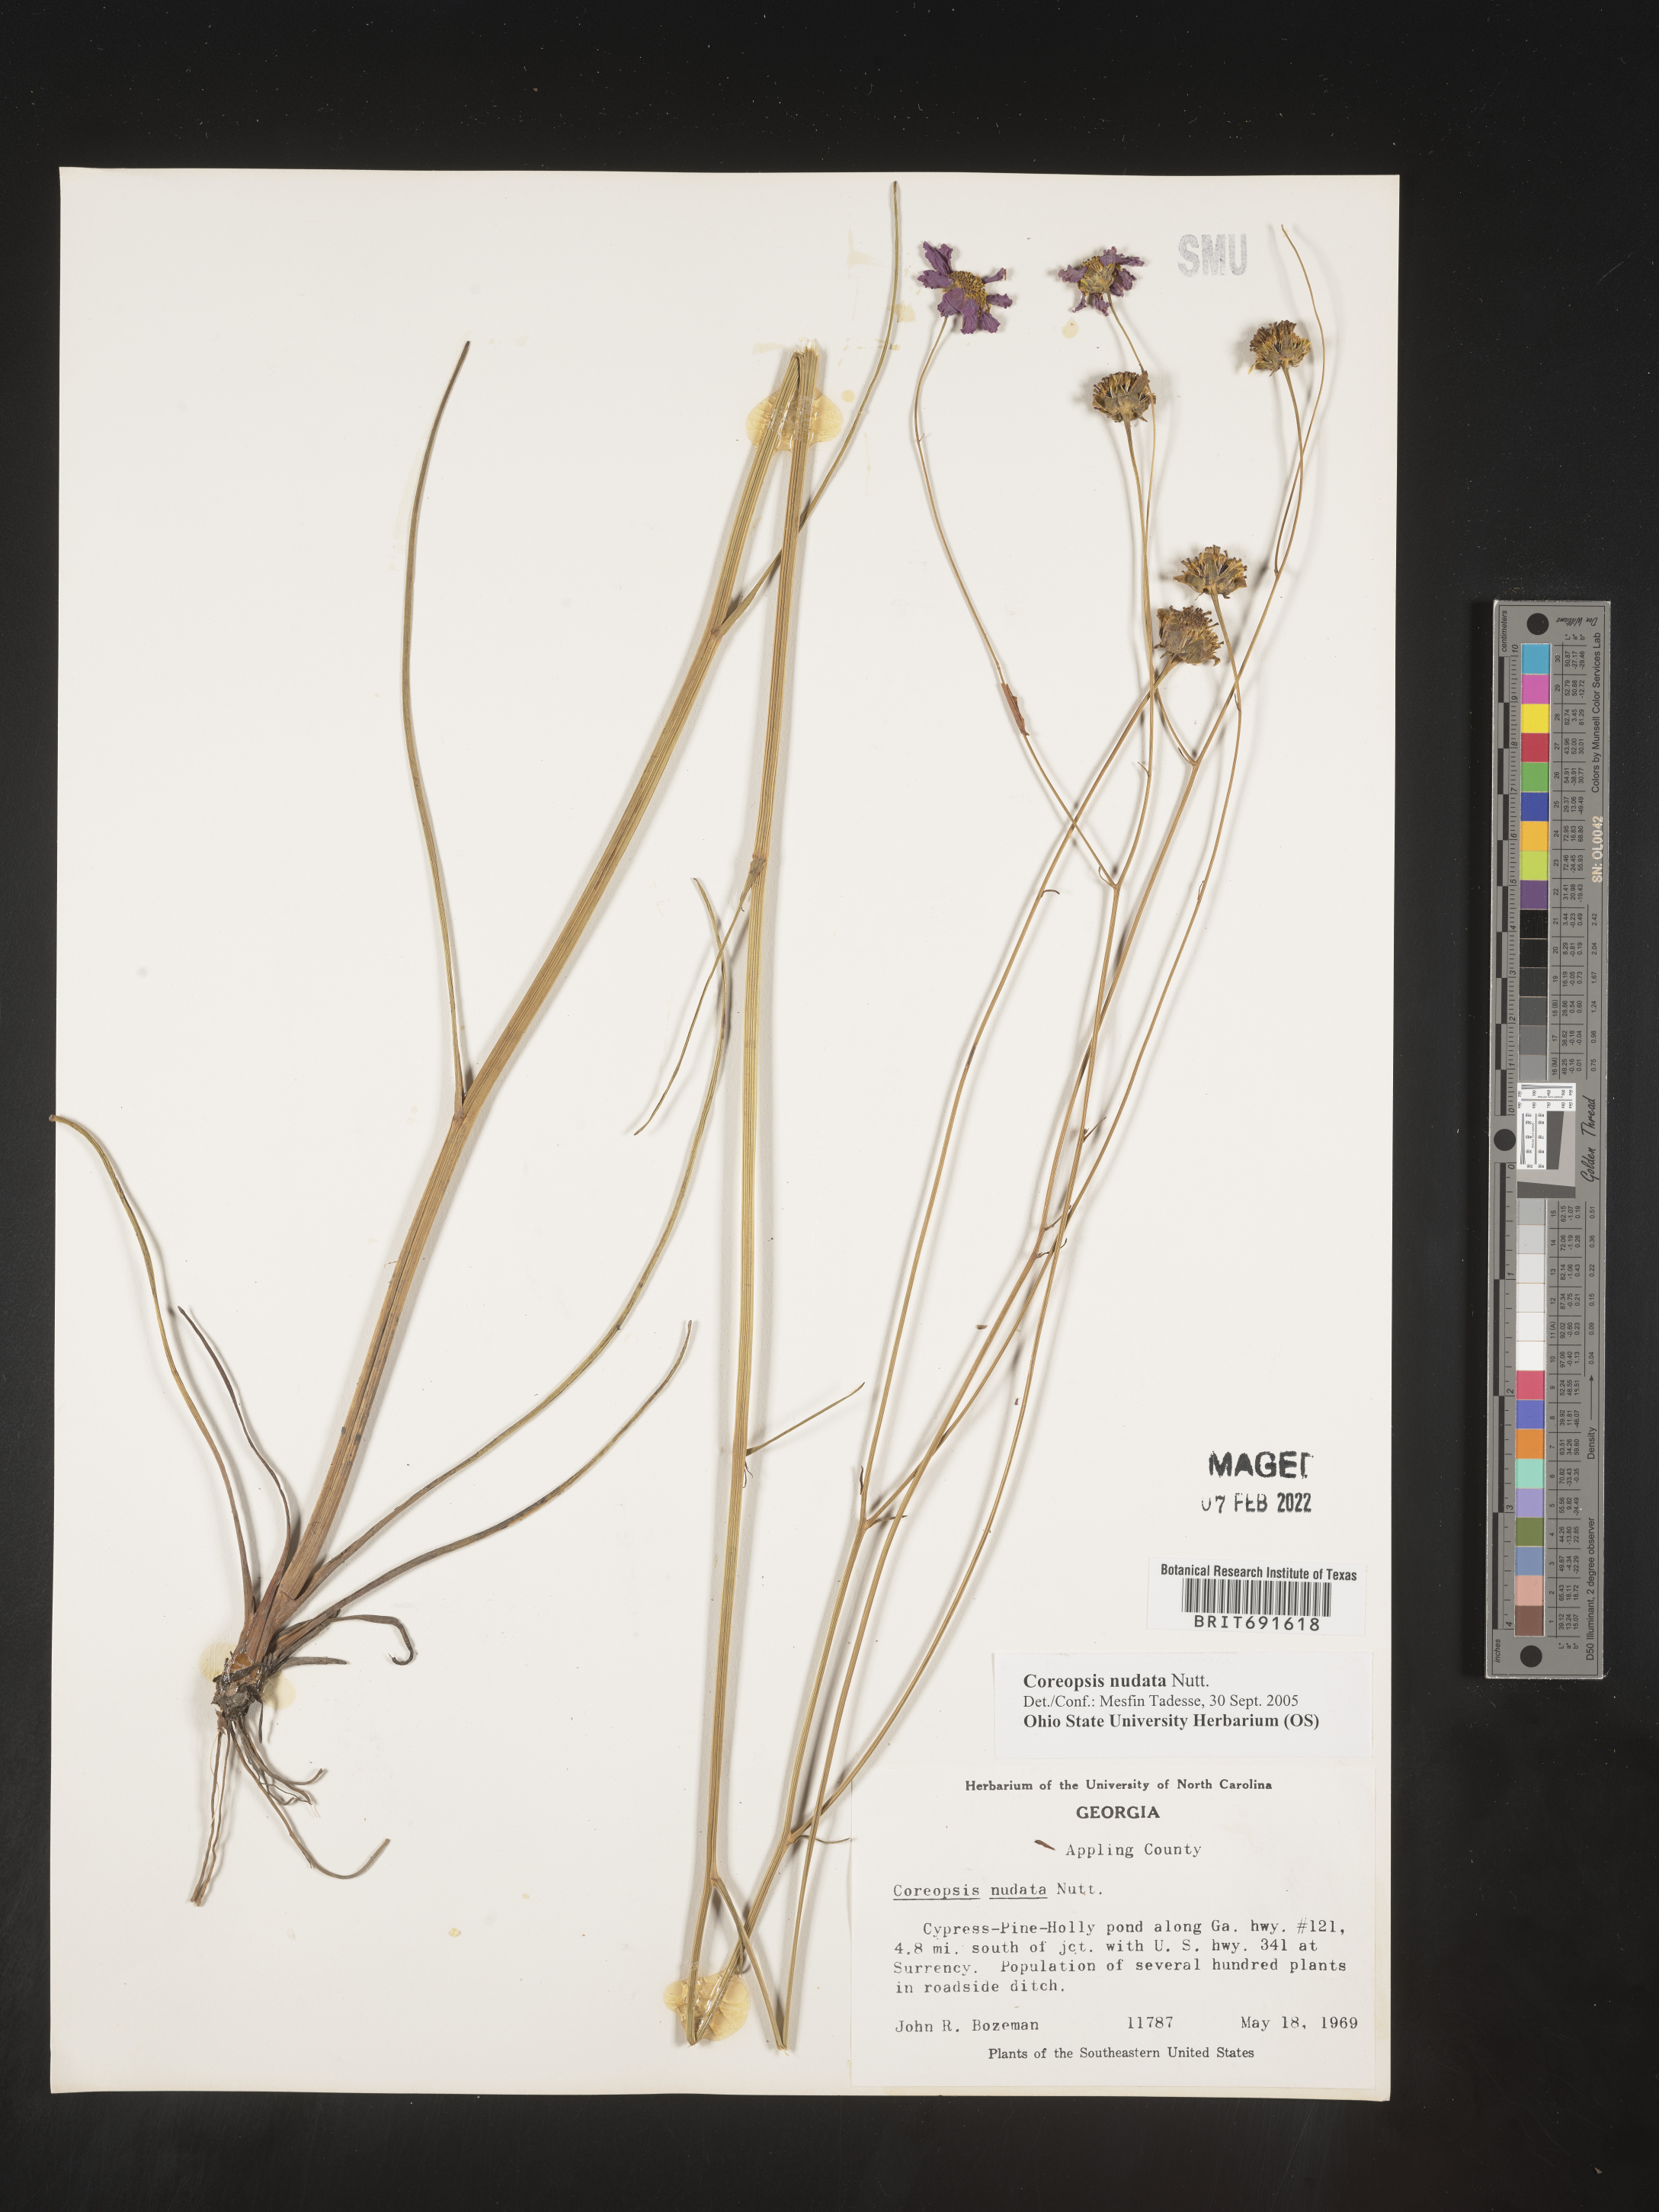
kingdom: Plantae
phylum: Tracheophyta
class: Magnoliopsida
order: Asterales
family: Asteraceae
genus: Coreopsis
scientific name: Coreopsis nudata
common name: Purple tickseed
